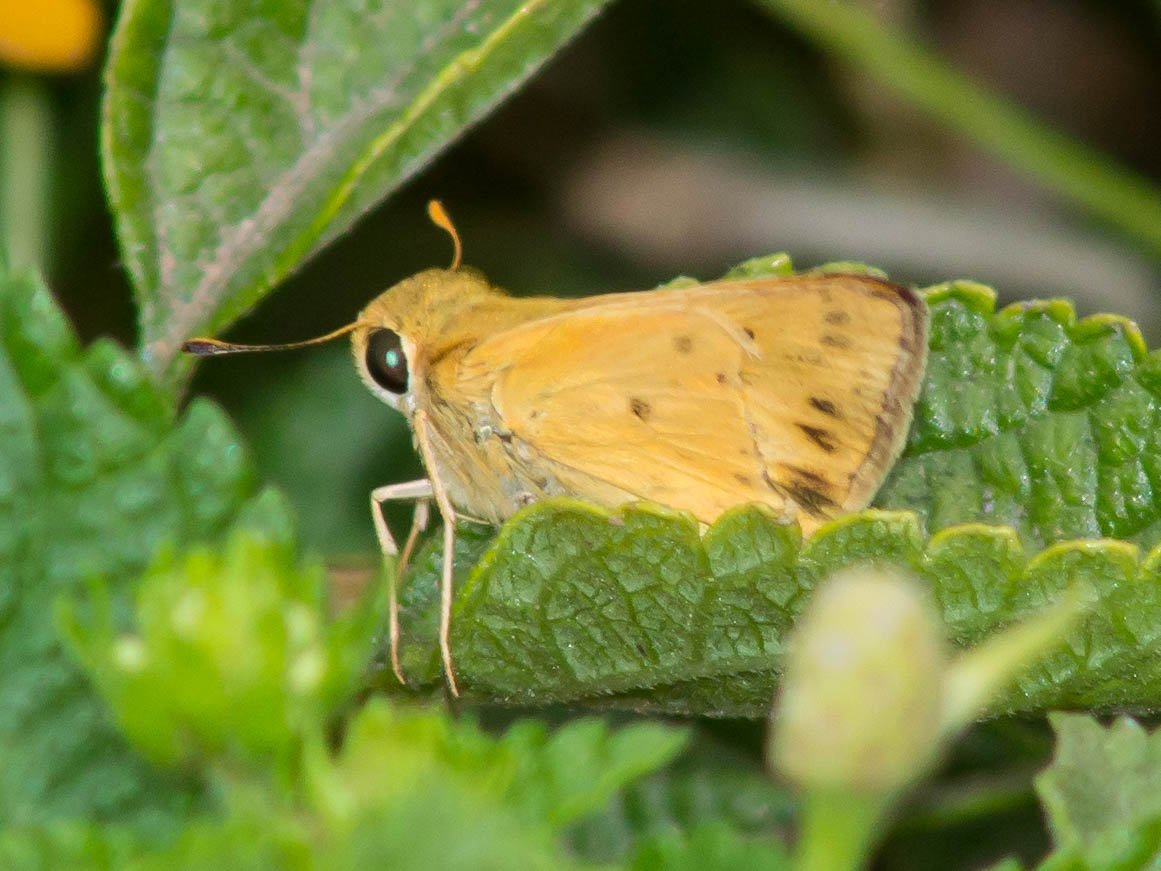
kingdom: Animalia
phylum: Arthropoda
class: Insecta
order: Lepidoptera
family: Hesperiidae
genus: Hylephila
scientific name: Hylephila phyleus
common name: Fiery Skipper
